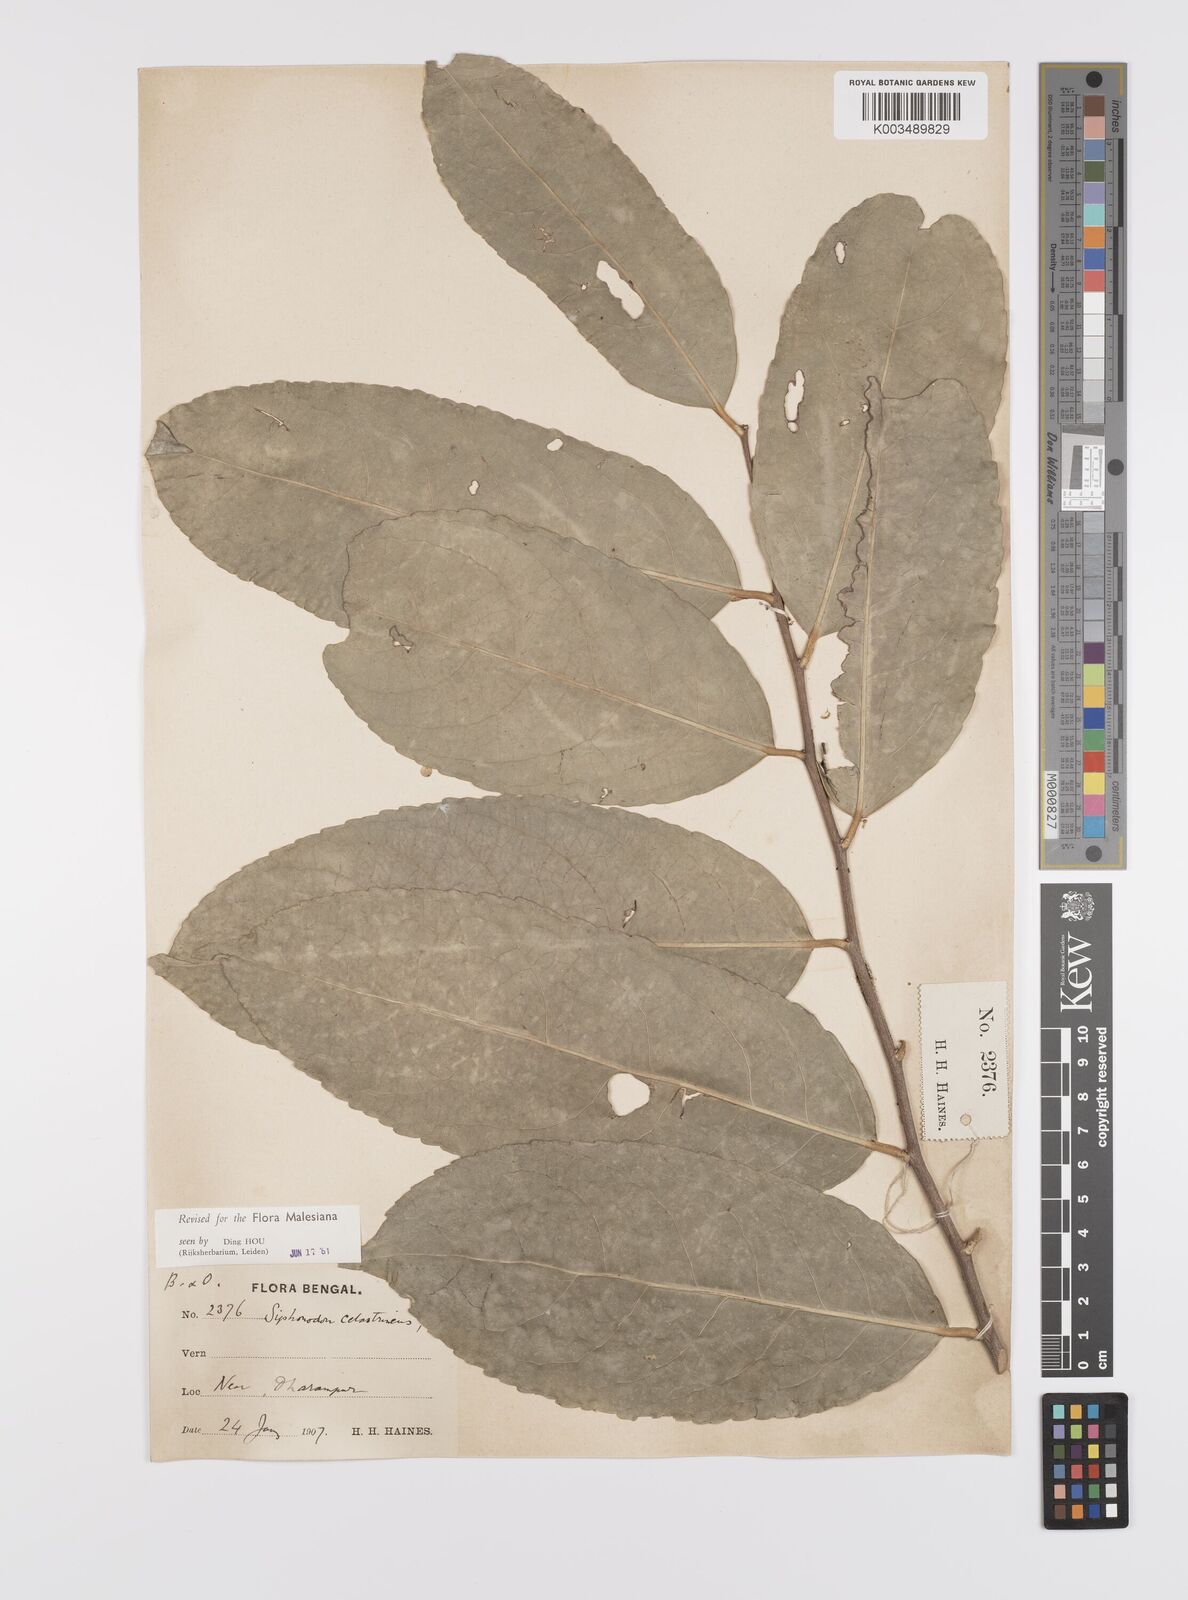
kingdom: Plantae
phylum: Tracheophyta
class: Magnoliopsida
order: Celastrales
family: Celastraceae
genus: Siphonodon
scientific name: Siphonodon celastrineus
